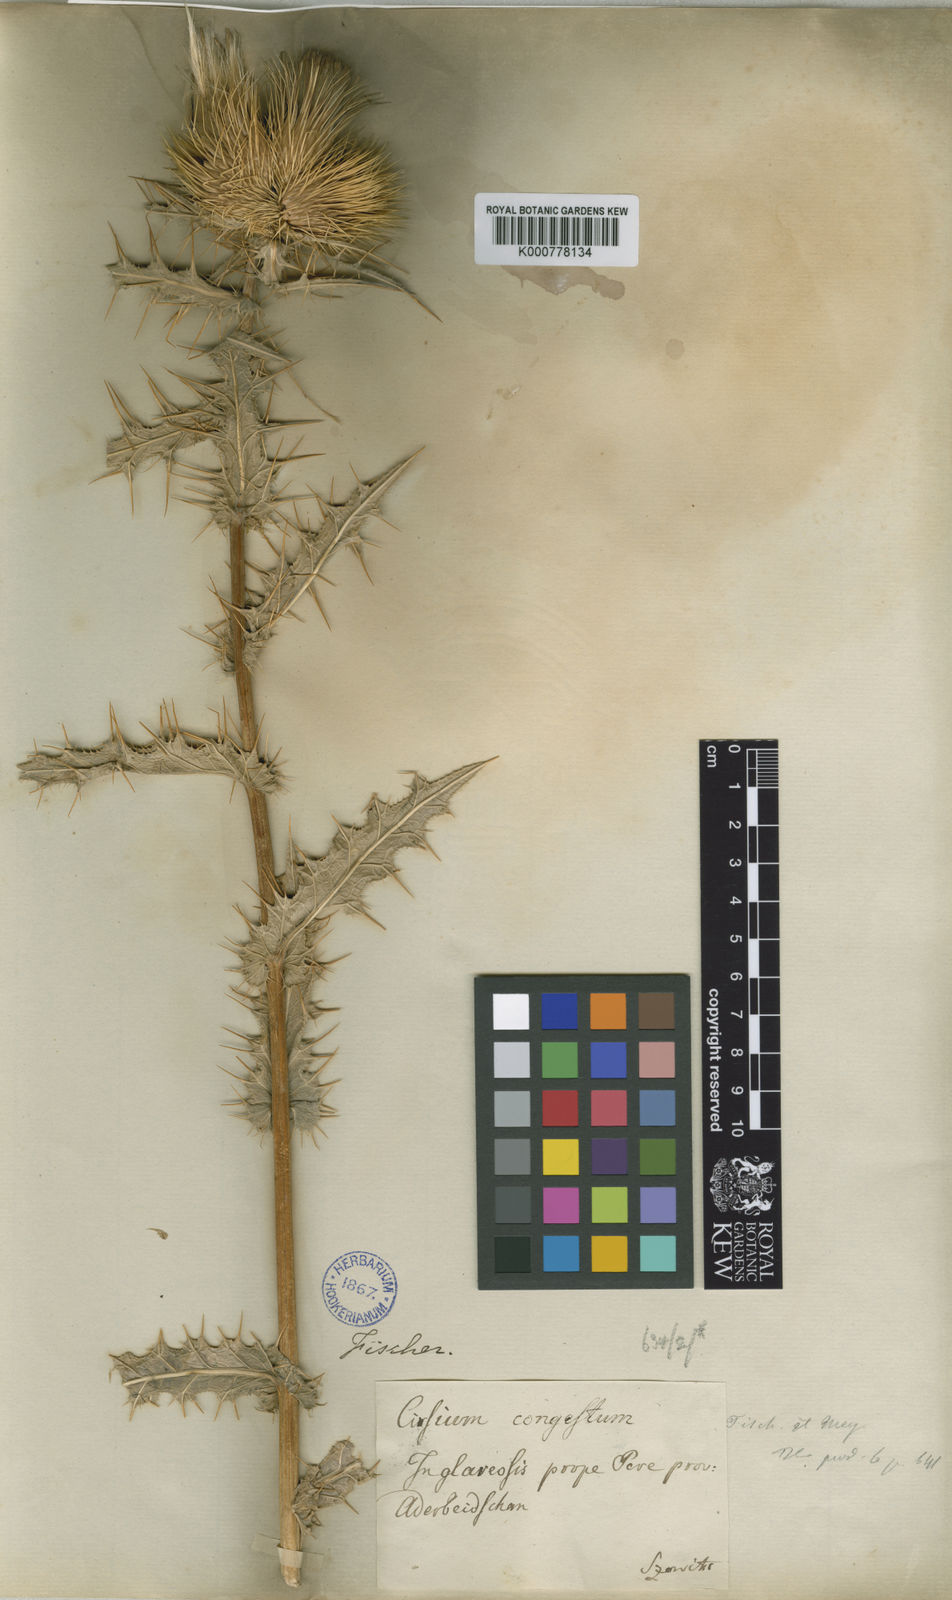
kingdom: Plantae
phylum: Tracheophyta
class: Magnoliopsida
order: Asterales
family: Asteraceae
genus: Lophiolepis
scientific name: Lophiolepis sorocephala
